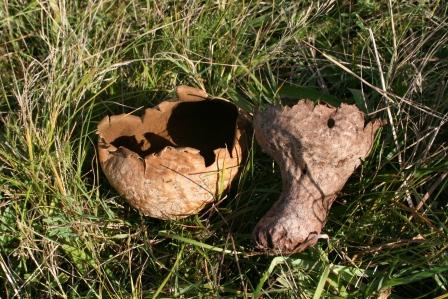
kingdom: Fungi
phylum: Basidiomycota
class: Agaricomycetes
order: Agaricales
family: Lycoperdaceae
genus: Bovistella
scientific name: Bovistella utriformis
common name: skællet støvbold
